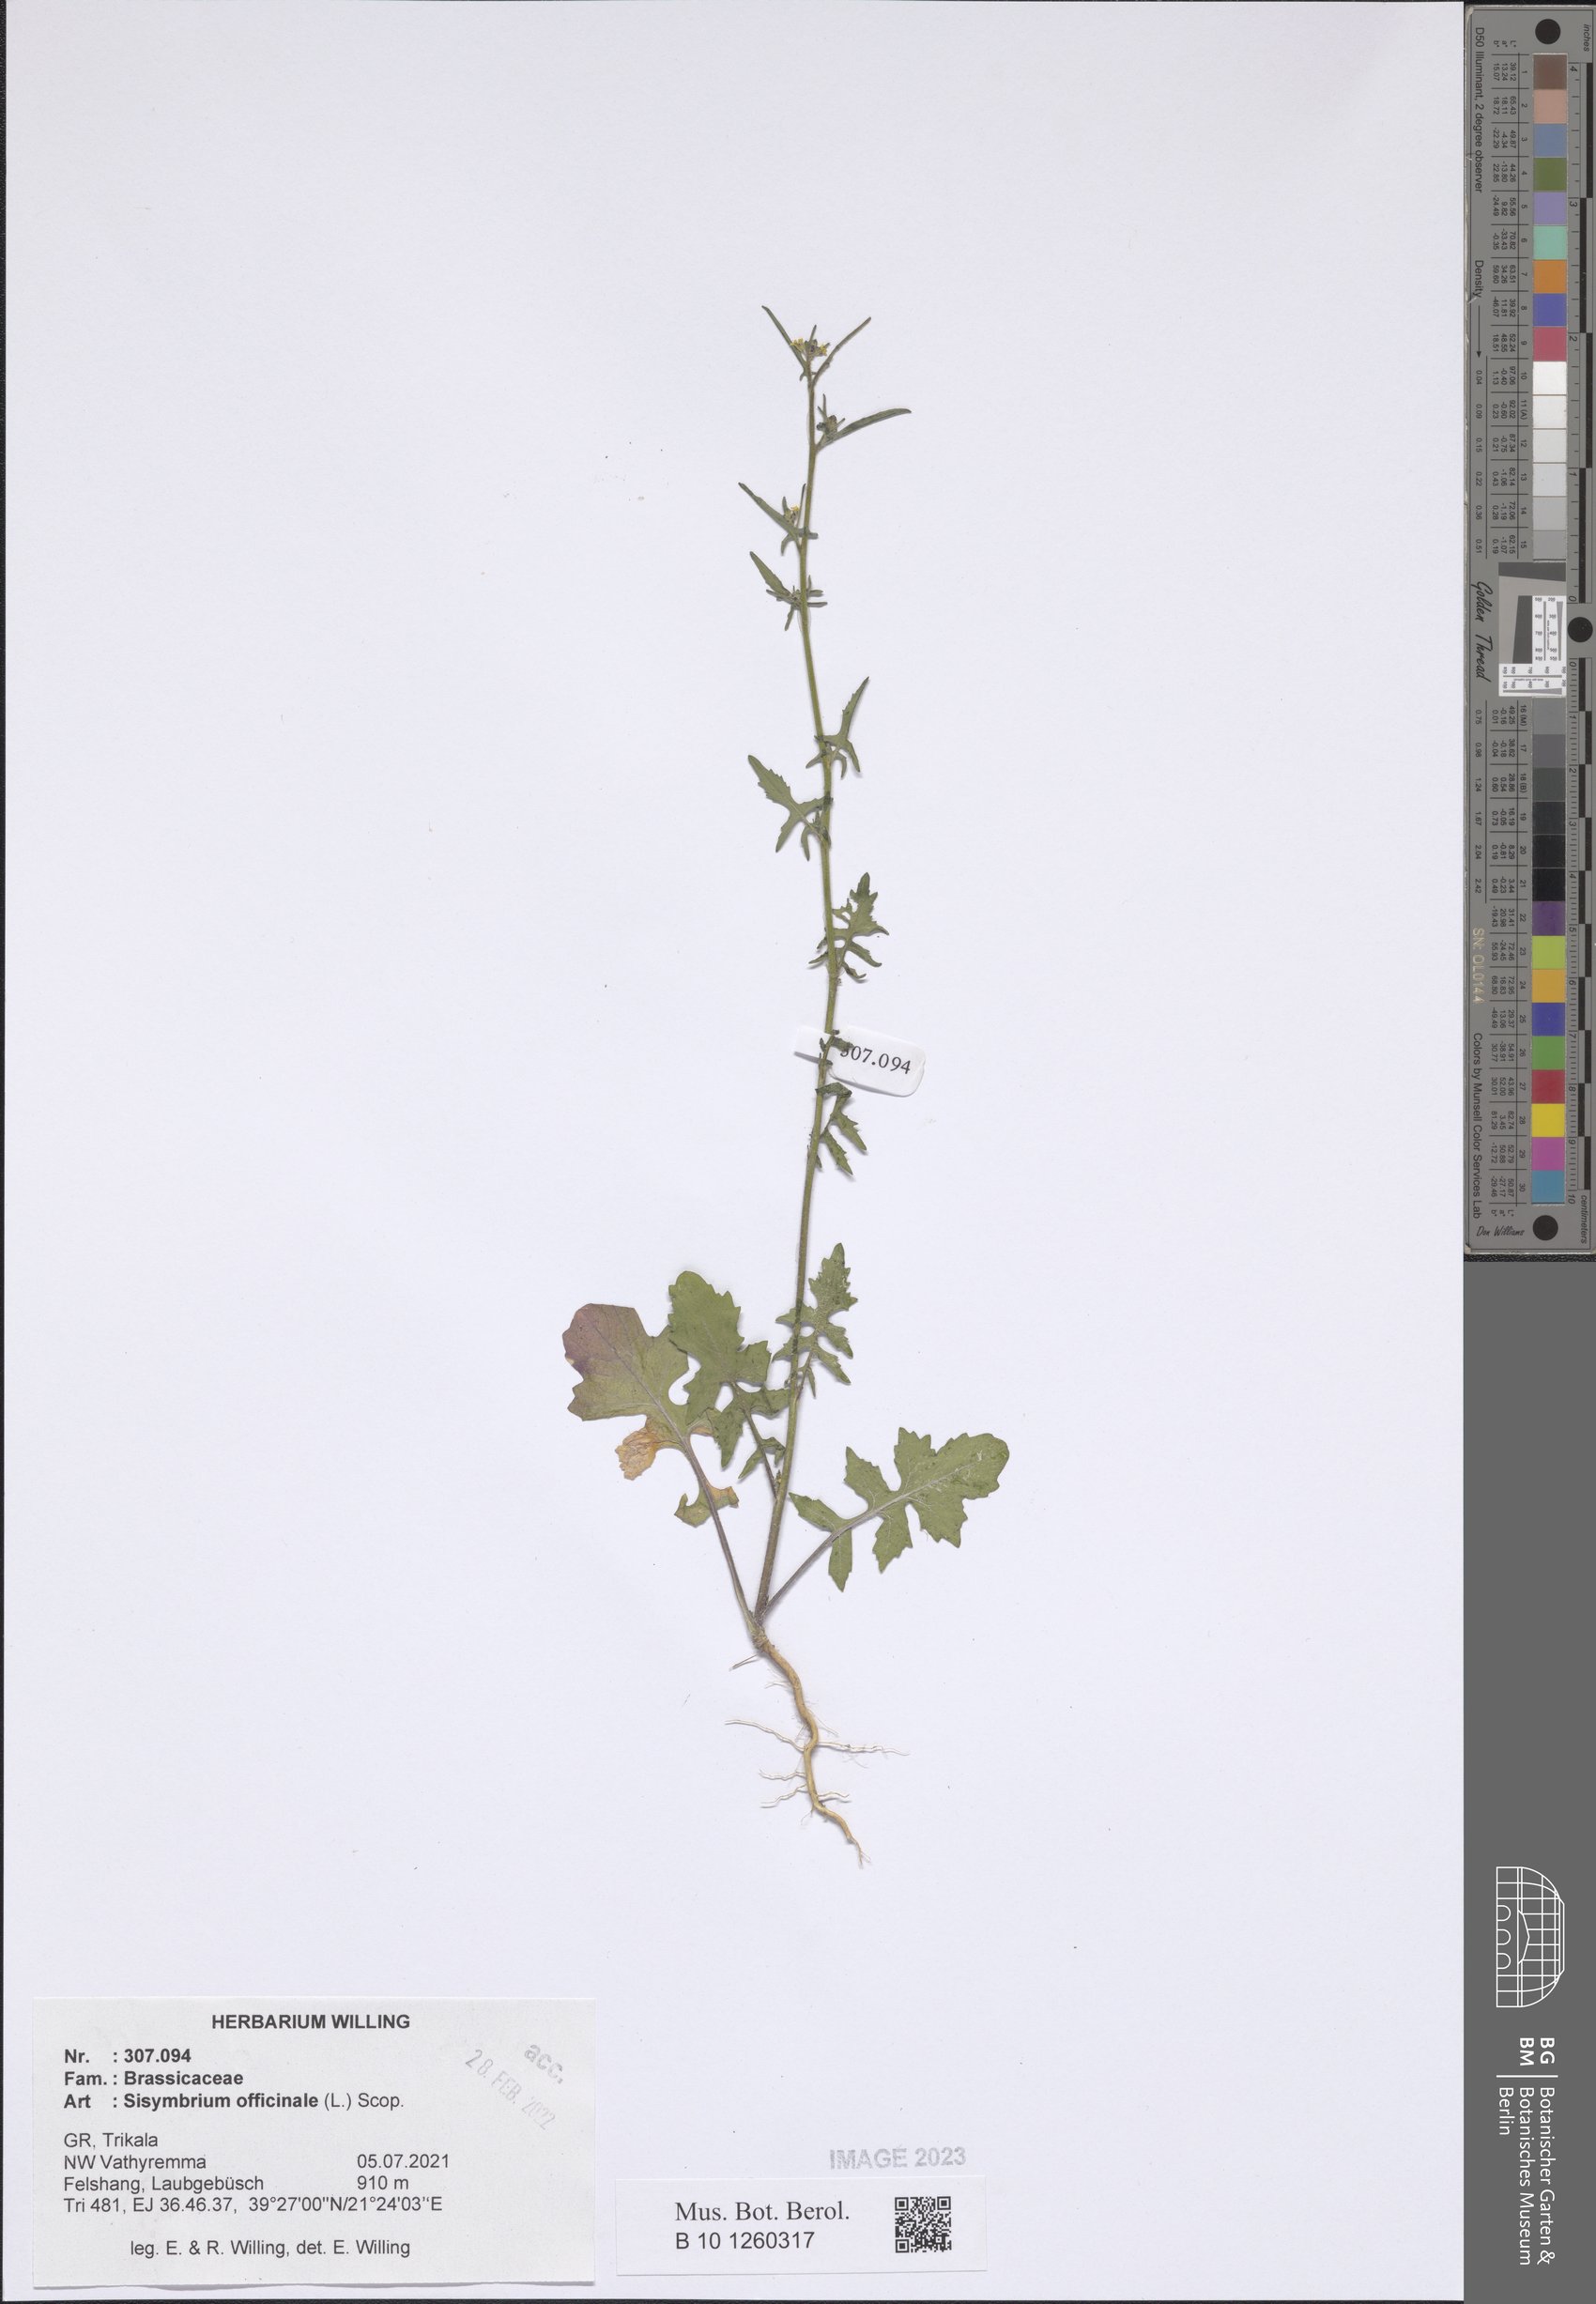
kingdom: Plantae
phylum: Tracheophyta
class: Magnoliopsida
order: Brassicales
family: Brassicaceae
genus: Sisymbrium
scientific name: Sisymbrium officinale
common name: Hedge mustard
